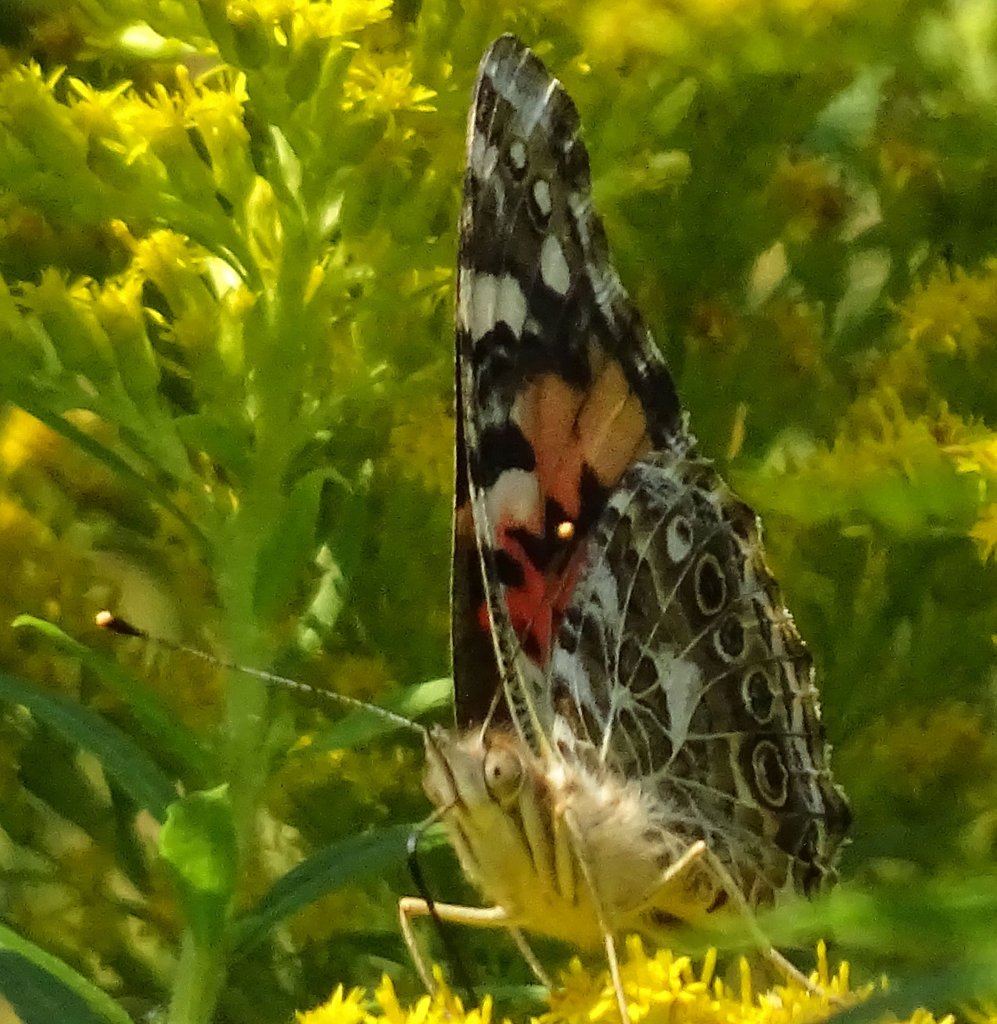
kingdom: Animalia
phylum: Arthropoda
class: Insecta
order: Lepidoptera
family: Nymphalidae
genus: Vanessa
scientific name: Vanessa cardui
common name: Painted Lady
